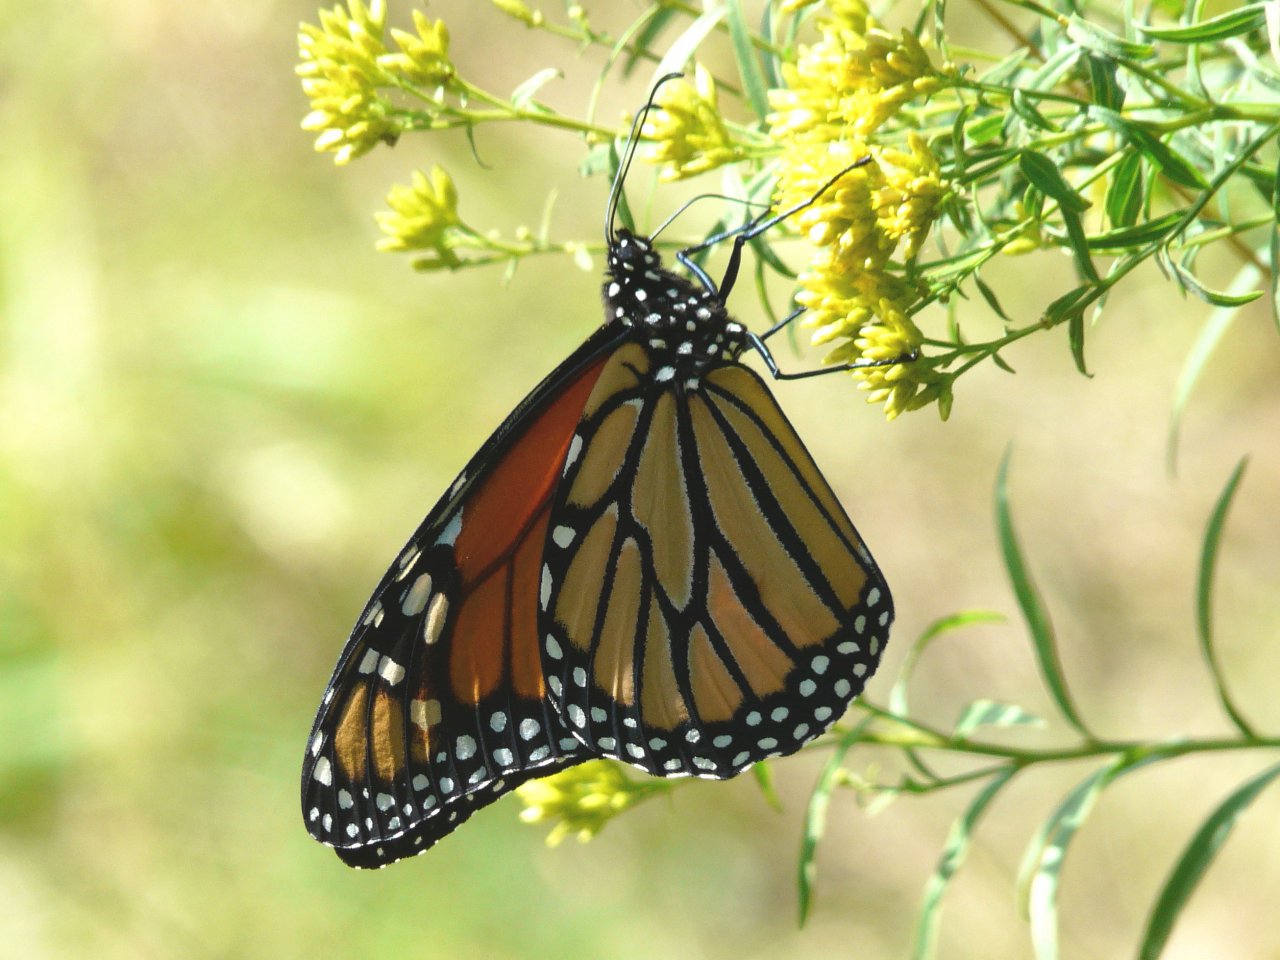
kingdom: Animalia
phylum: Arthropoda
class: Insecta
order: Lepidoptera
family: Nymphalidae
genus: Danaus
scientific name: Danaus plexippus
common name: Monarch
